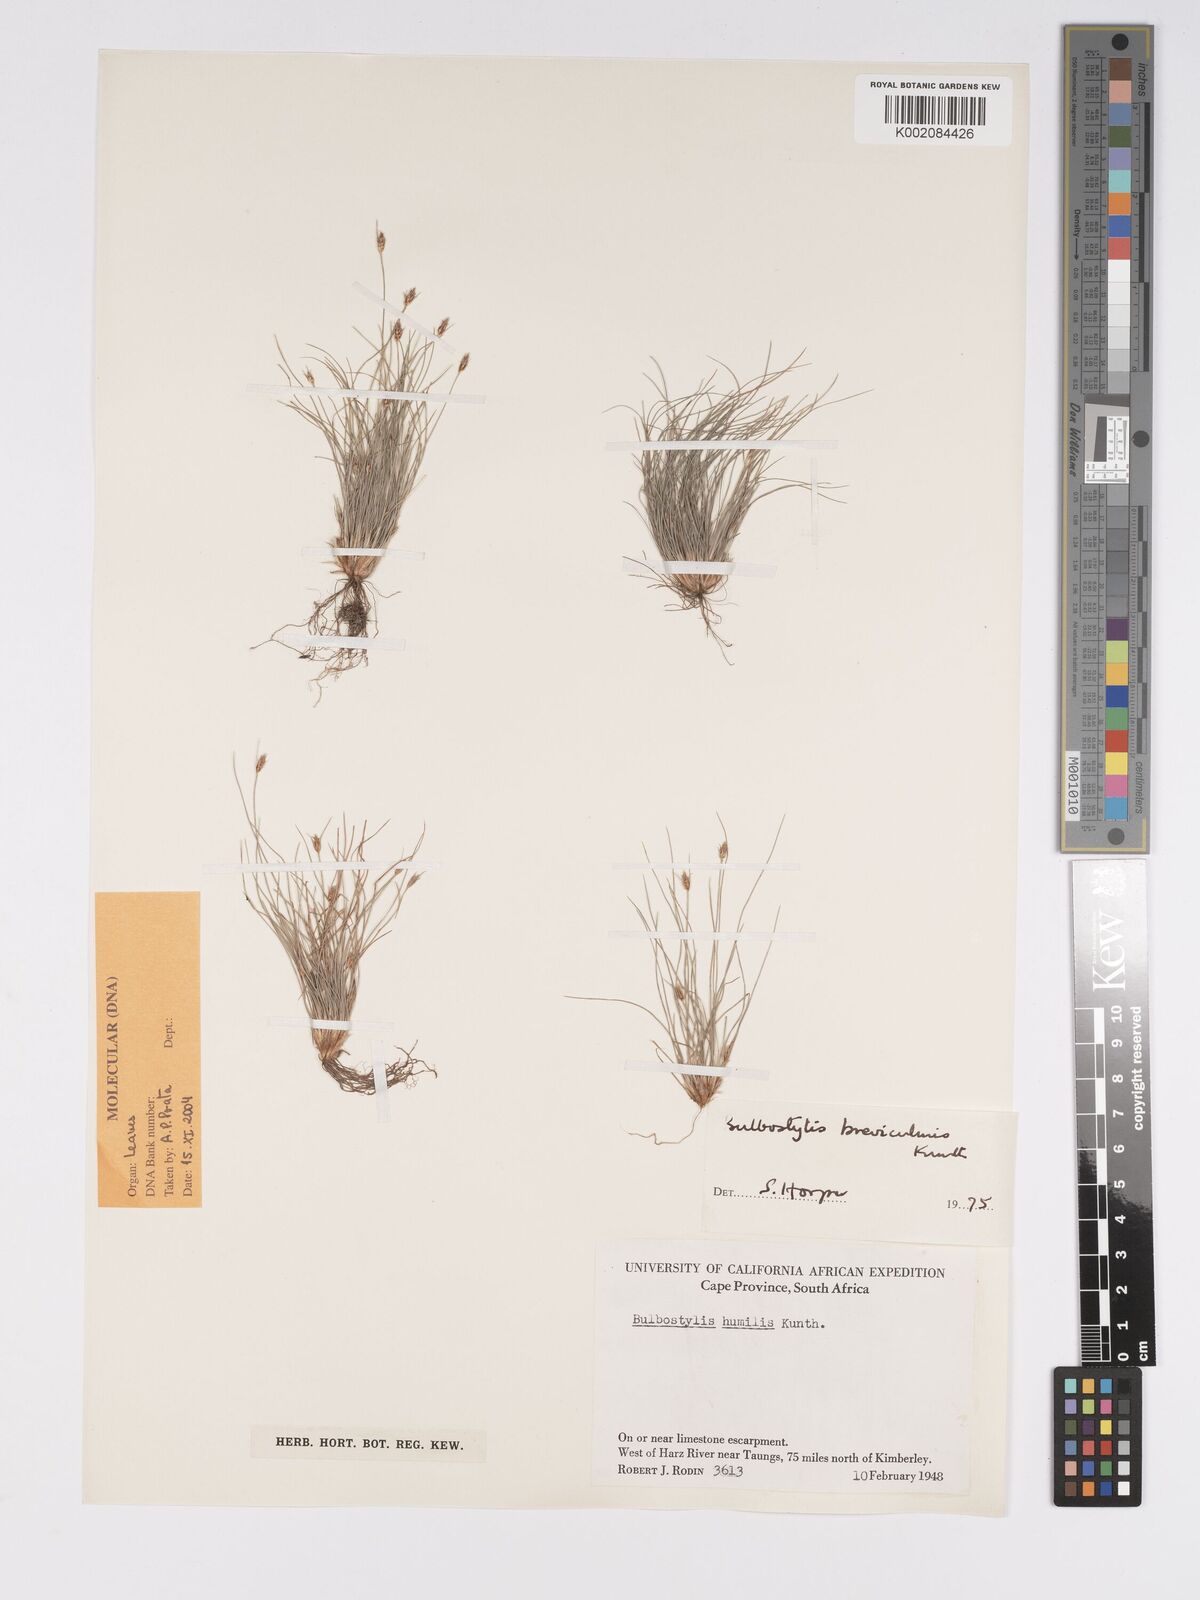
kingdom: Plantae
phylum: Tracheophyta
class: Liliopsida
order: Poales
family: Cyperaceae
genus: Bulbostylis
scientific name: Bulbostylis humilis
